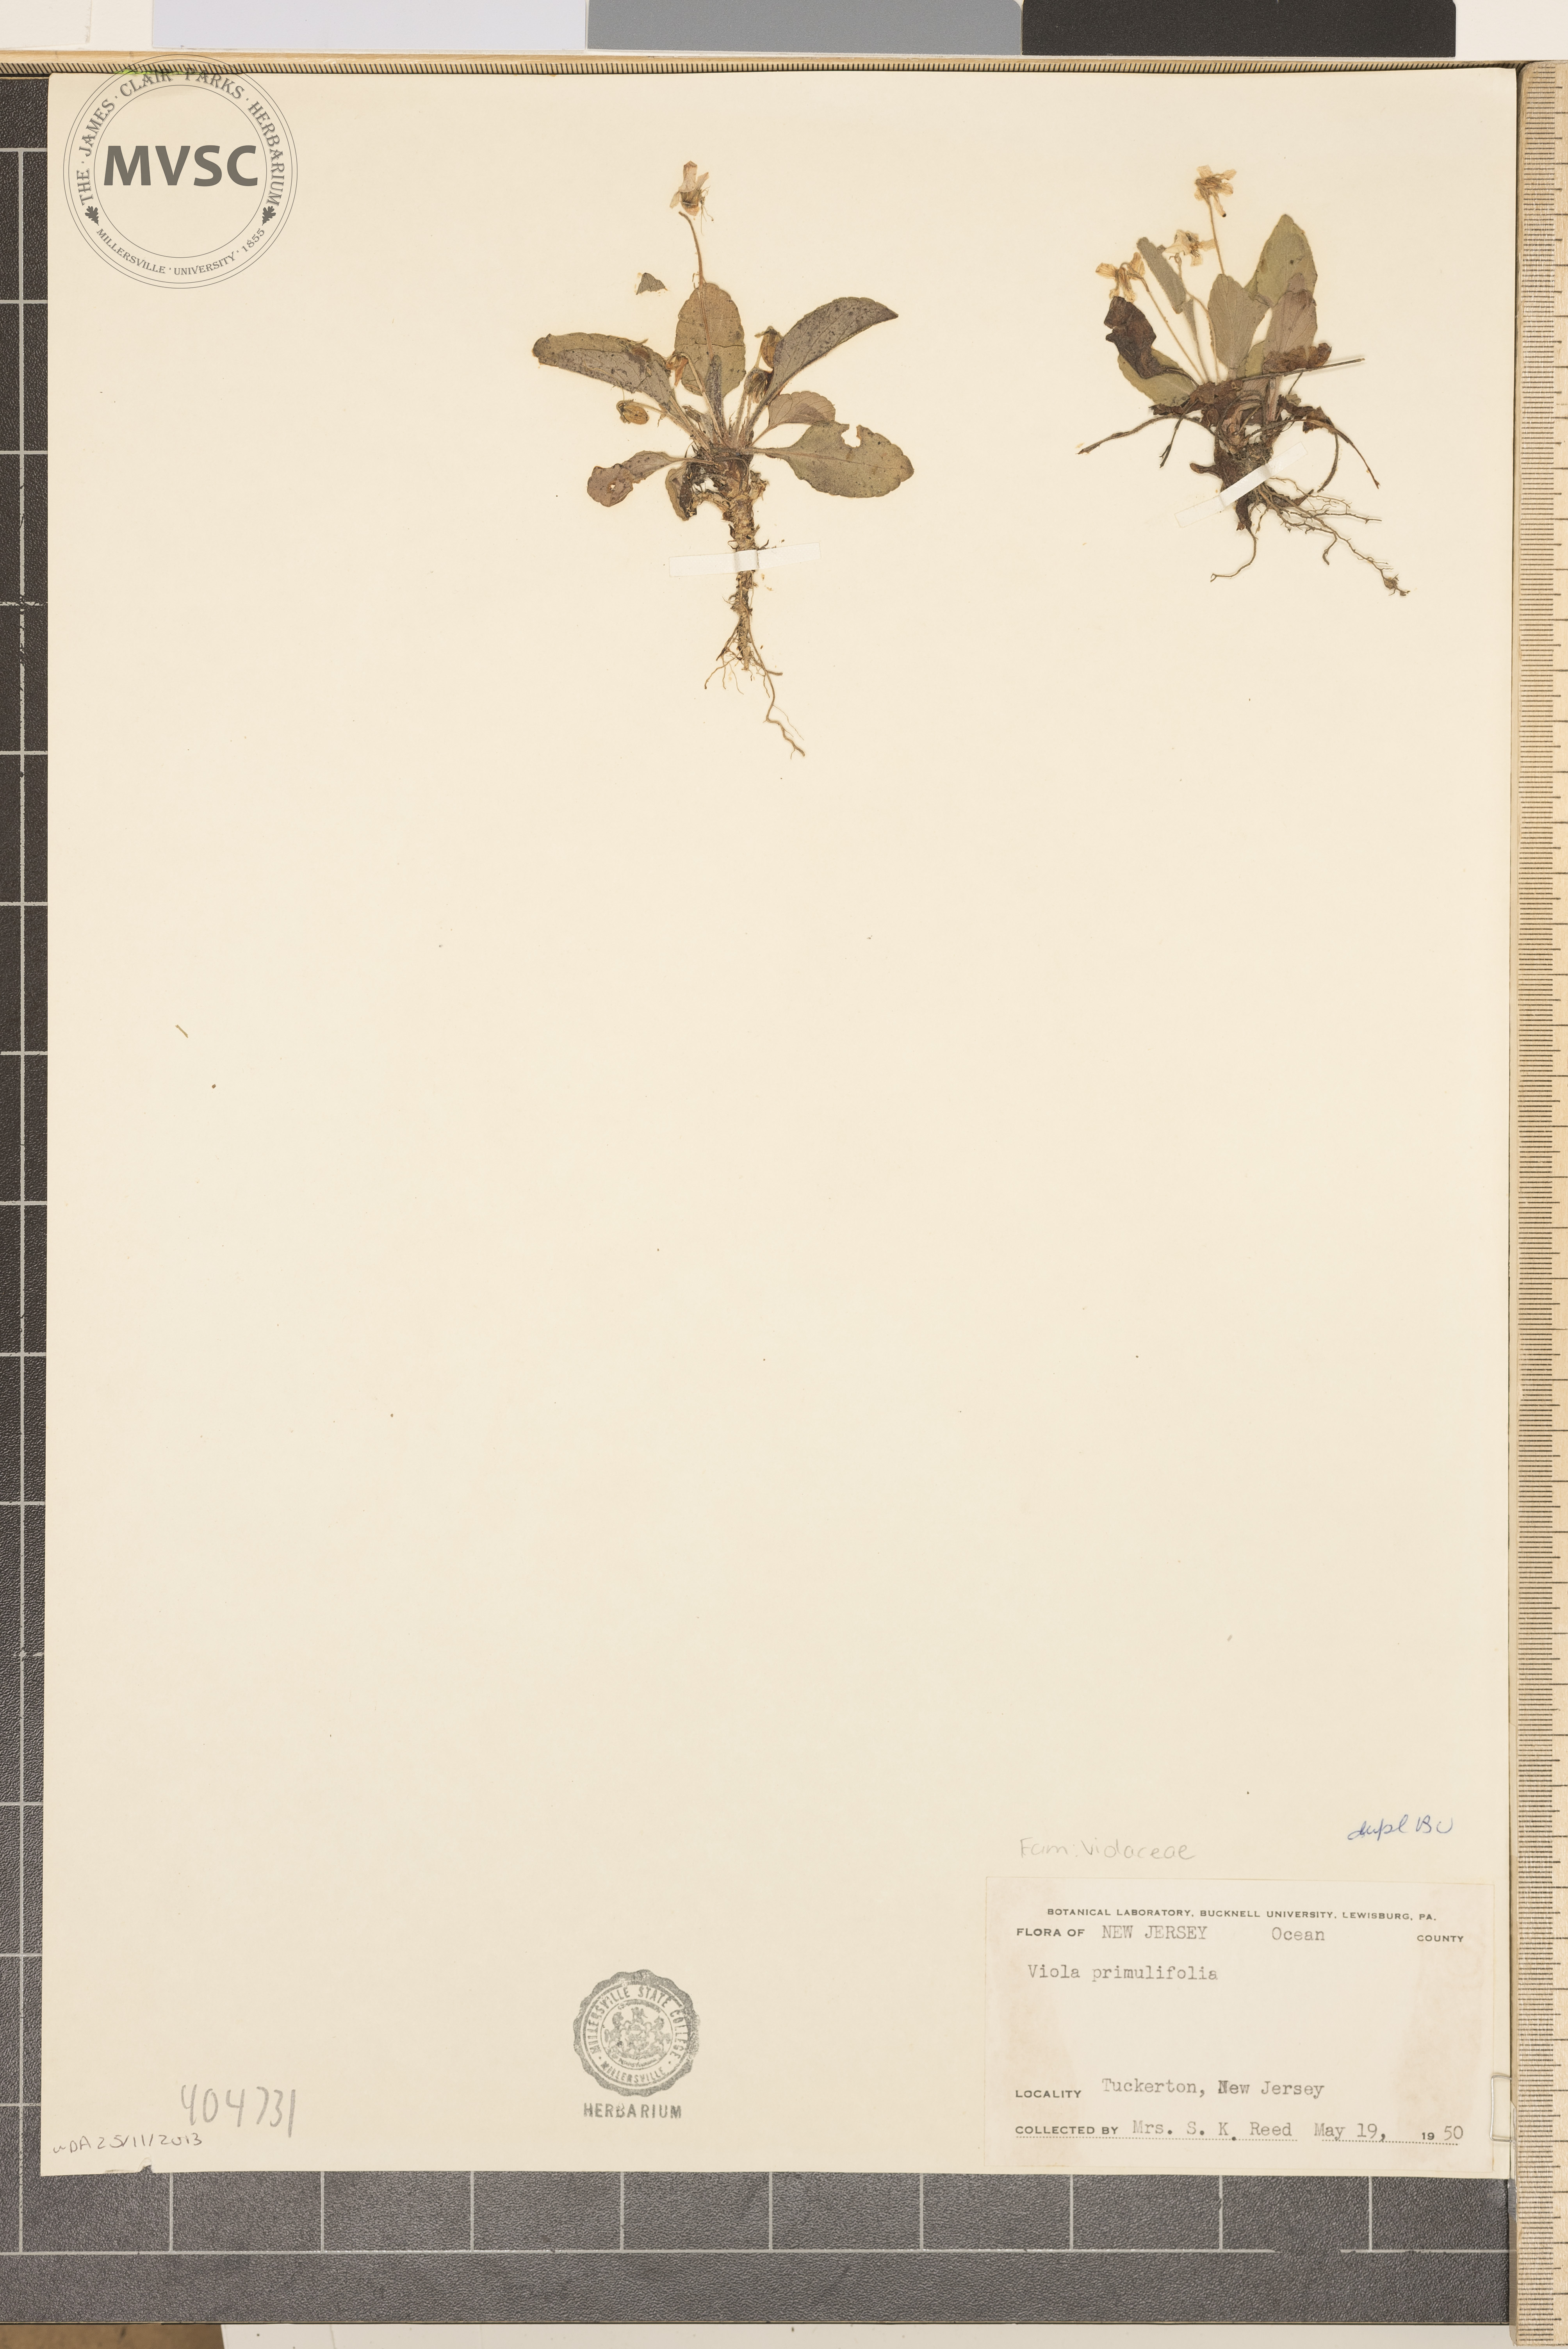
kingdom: Plantae
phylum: Tracheophyta
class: Magnoliopsida
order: Malpighiales
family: Violaceae
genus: Viola
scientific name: Viola primulifolia
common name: Primrose-leaf violet
